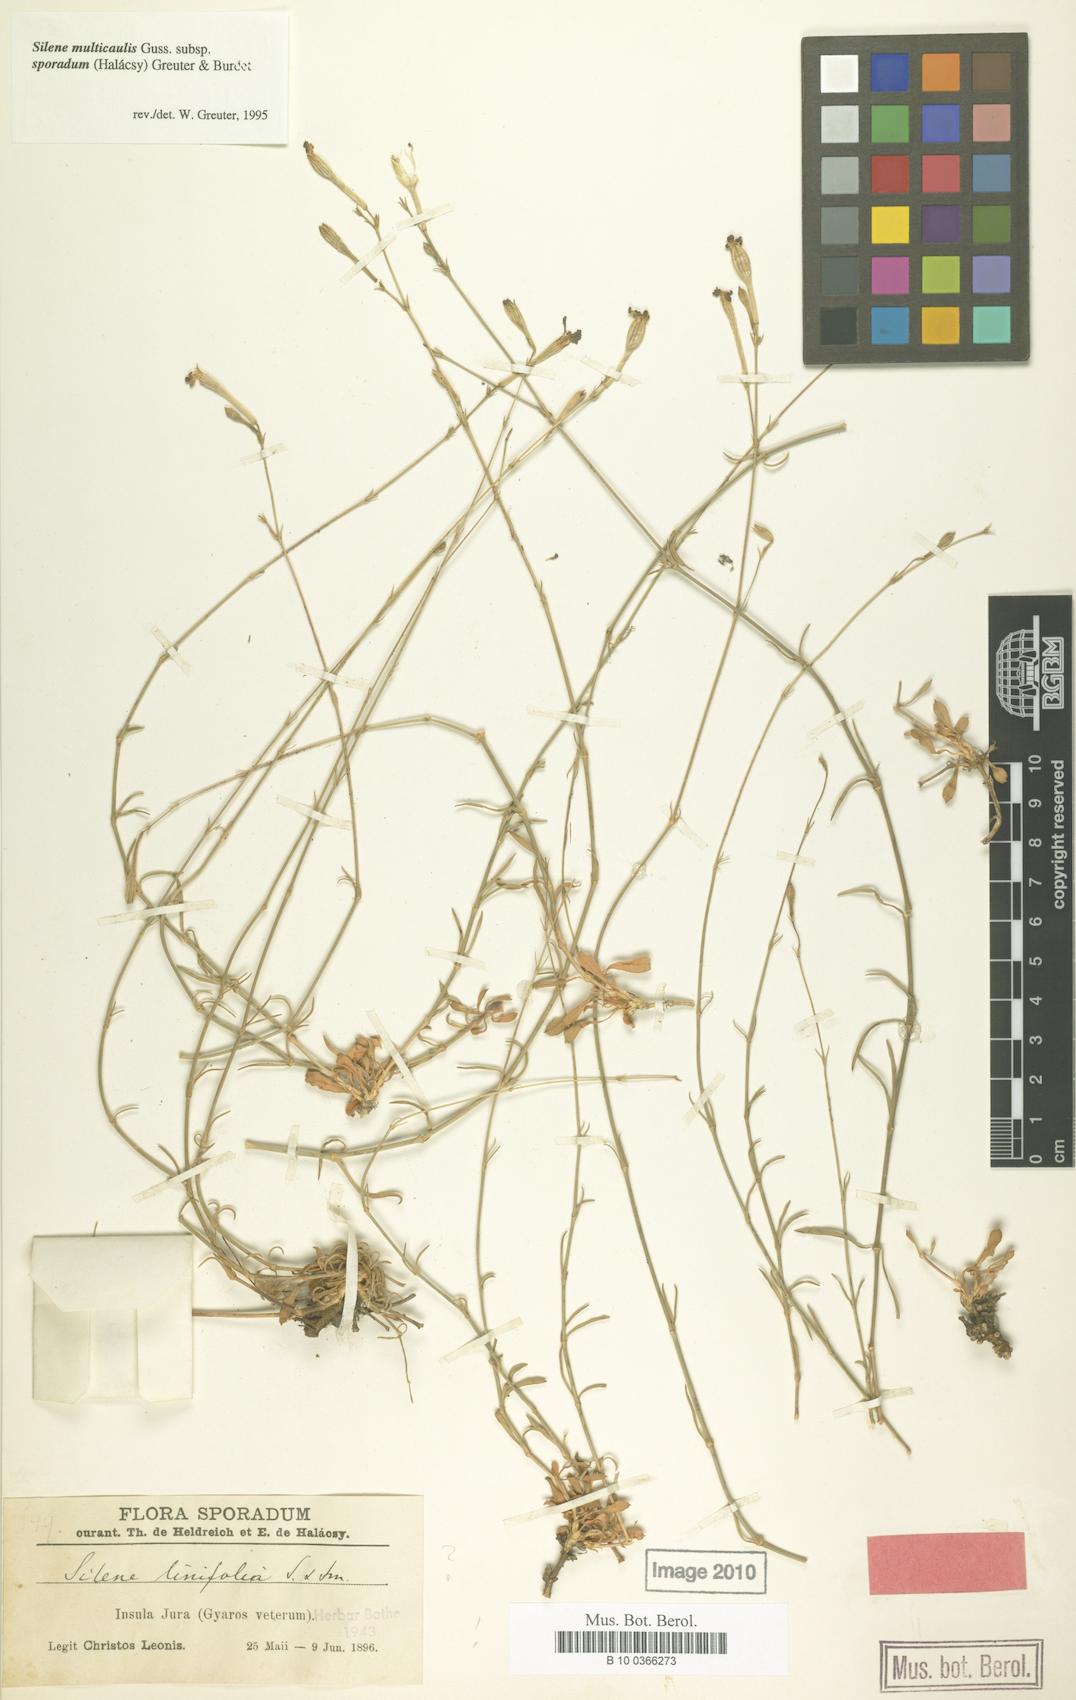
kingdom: Plantae
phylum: Tracheophyta
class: Magnoliopsida
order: Caryophyllales
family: Caryophyllaceae
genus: Silene
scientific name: Silene multicaulis
